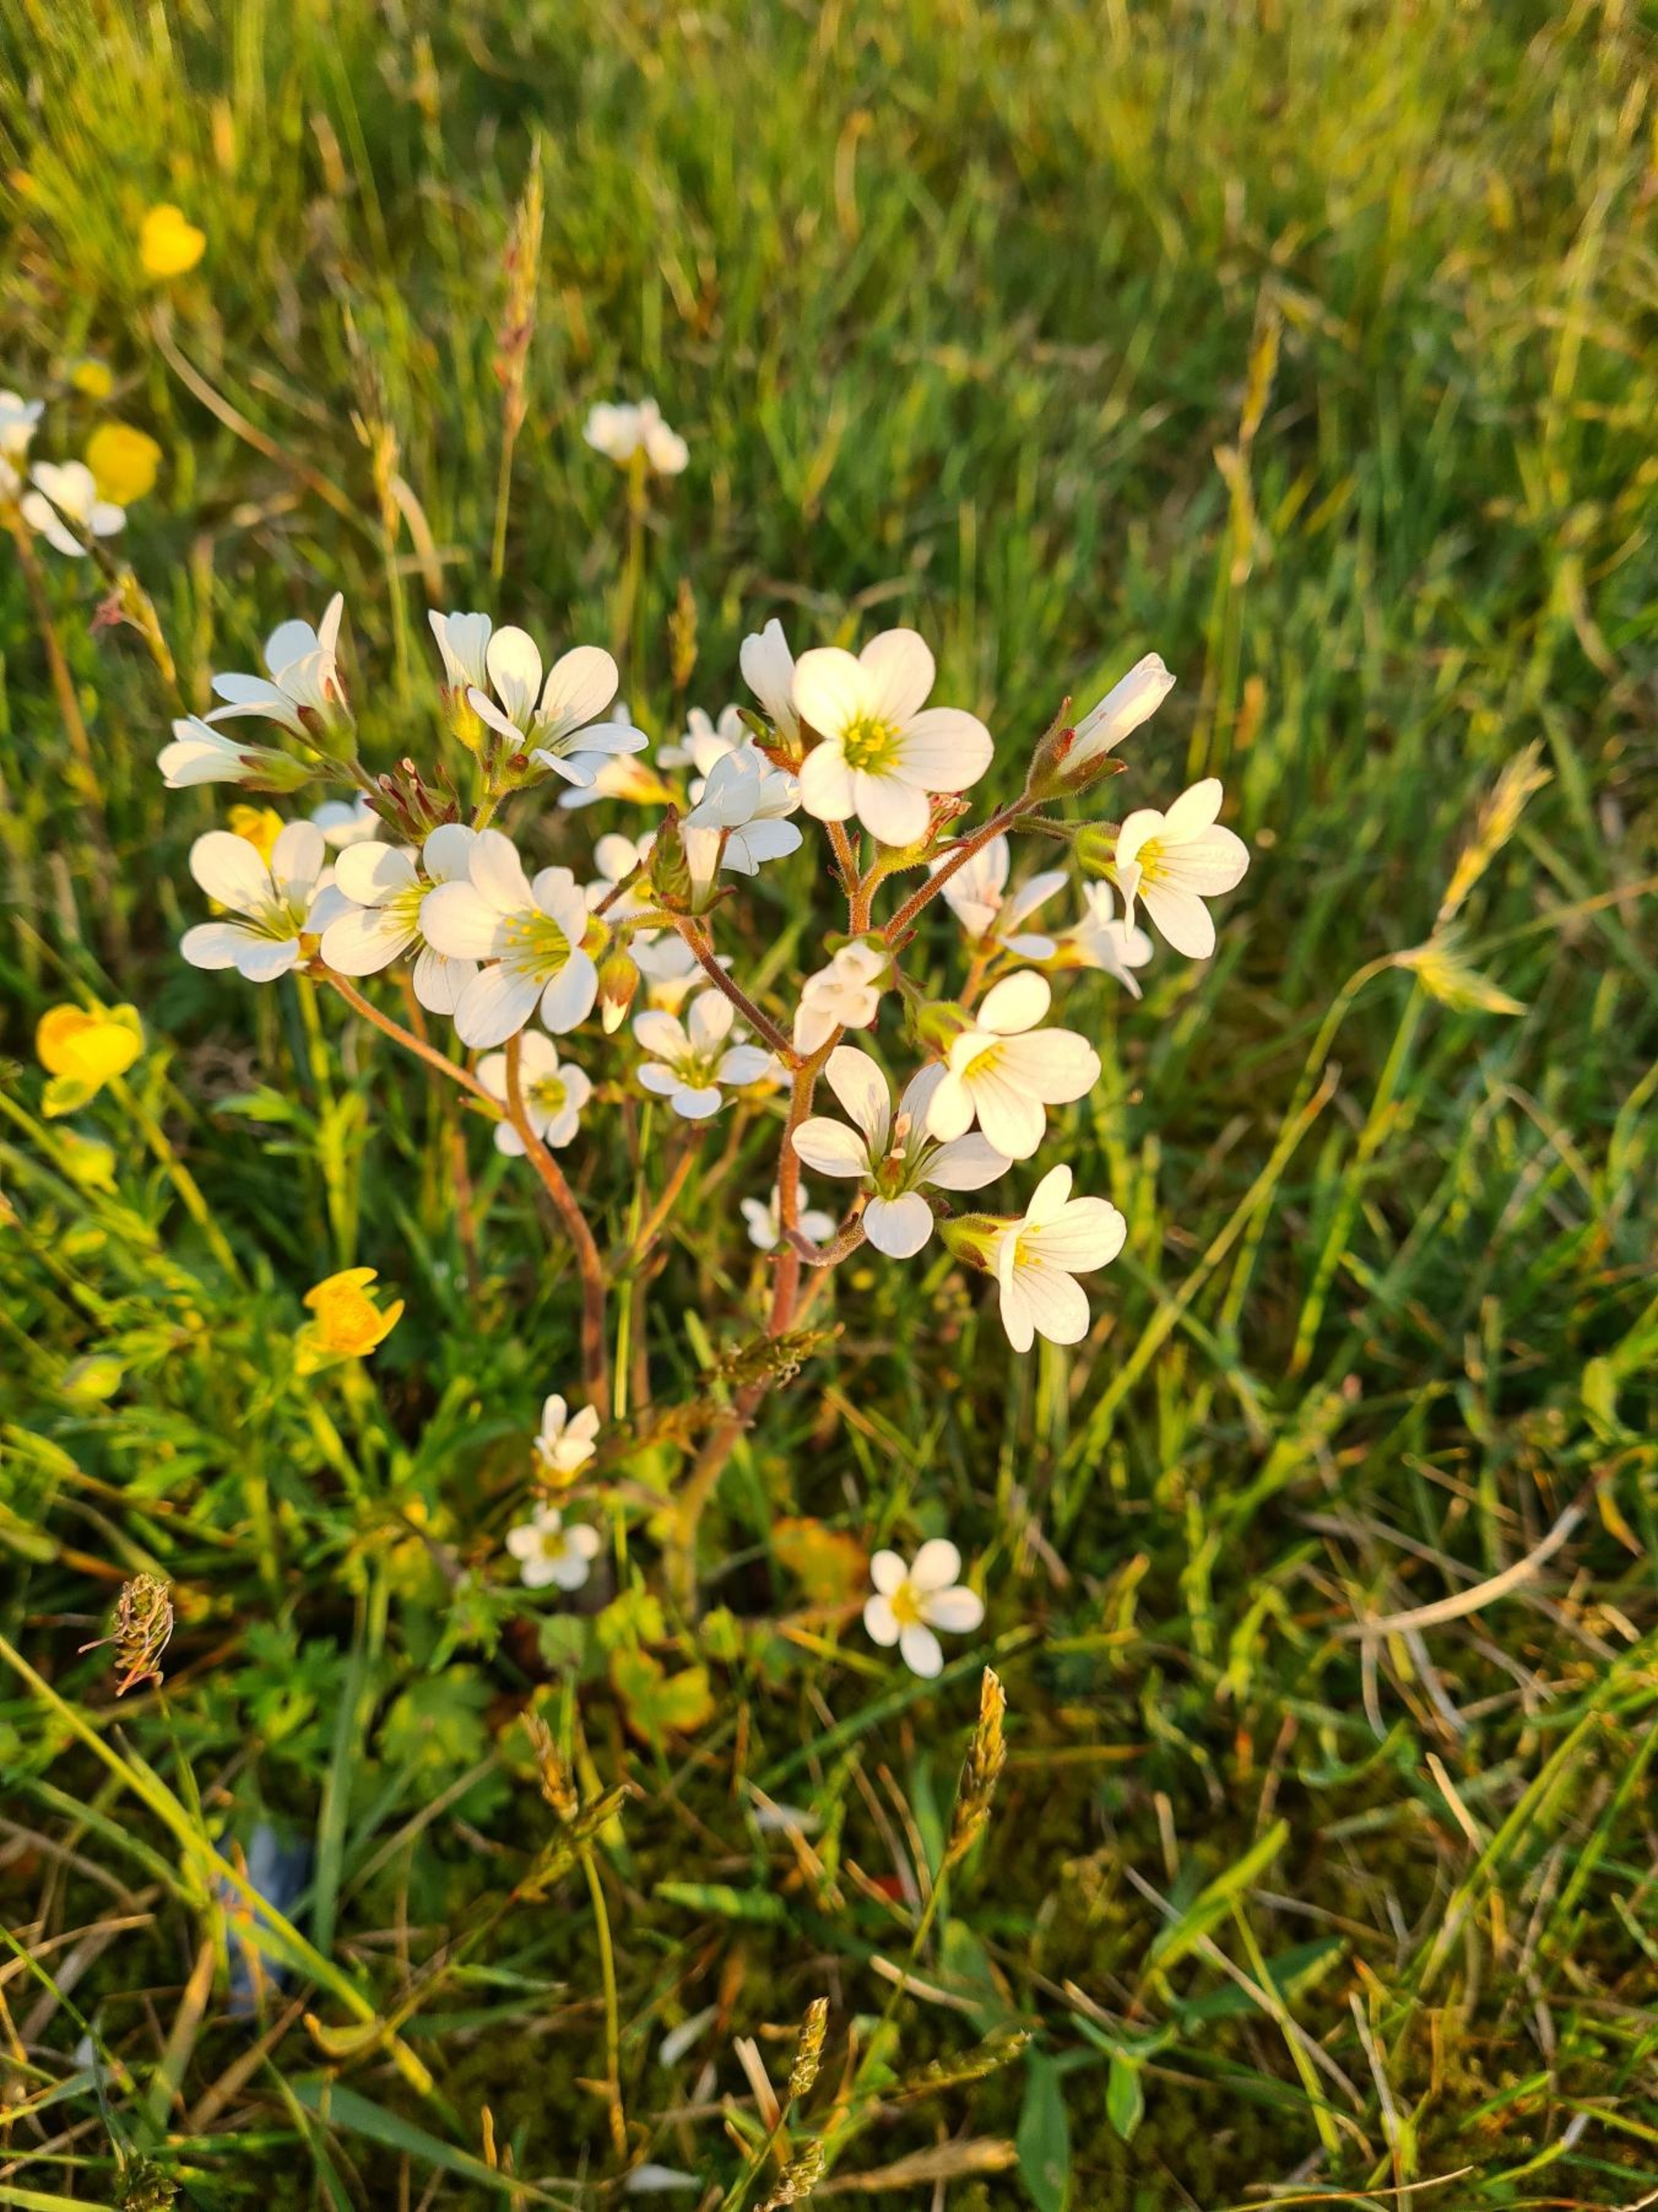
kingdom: Plantae
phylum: Tracheophyta
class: Magnoliopsida
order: Saxifragales
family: Saxifragaceae
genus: Saxifraga
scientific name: Saxifraga granulata
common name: Kornet stenbræk
